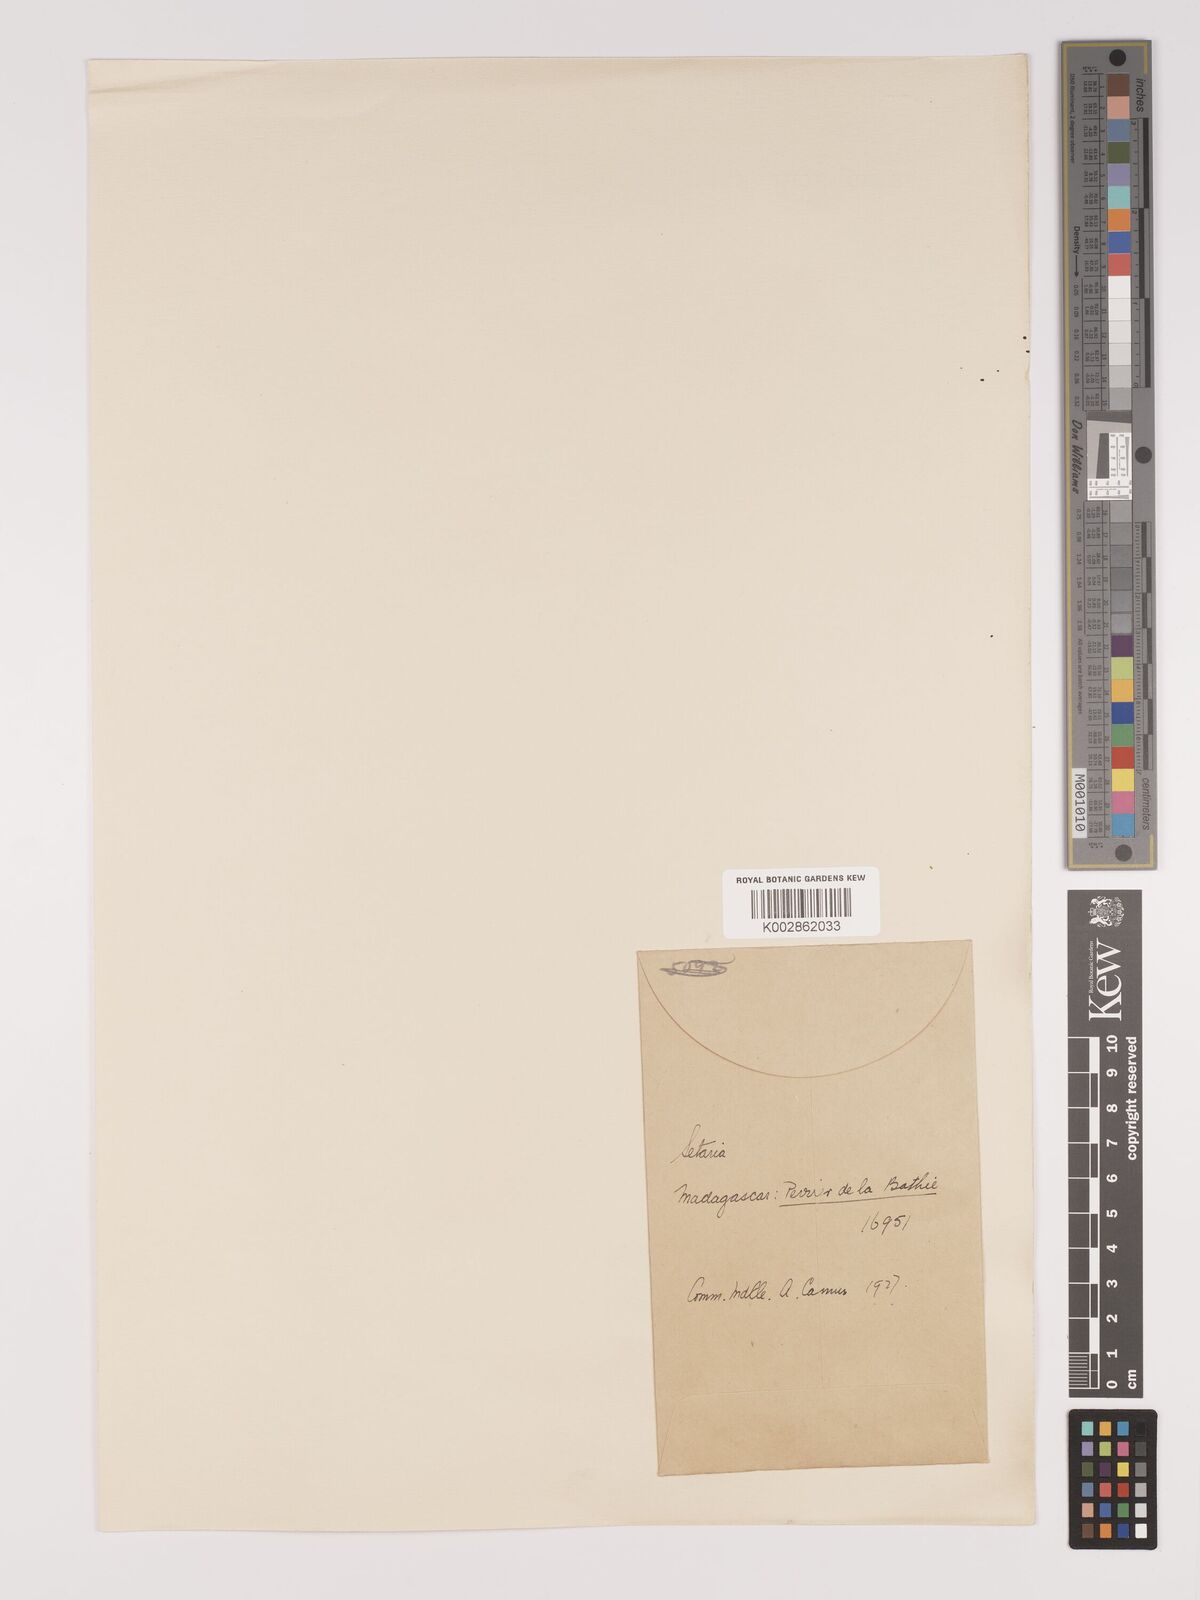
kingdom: Plantae
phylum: Tracheophyta
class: Liliopsida
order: Poales
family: Poaceae
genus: Setaria
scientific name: Setaria
